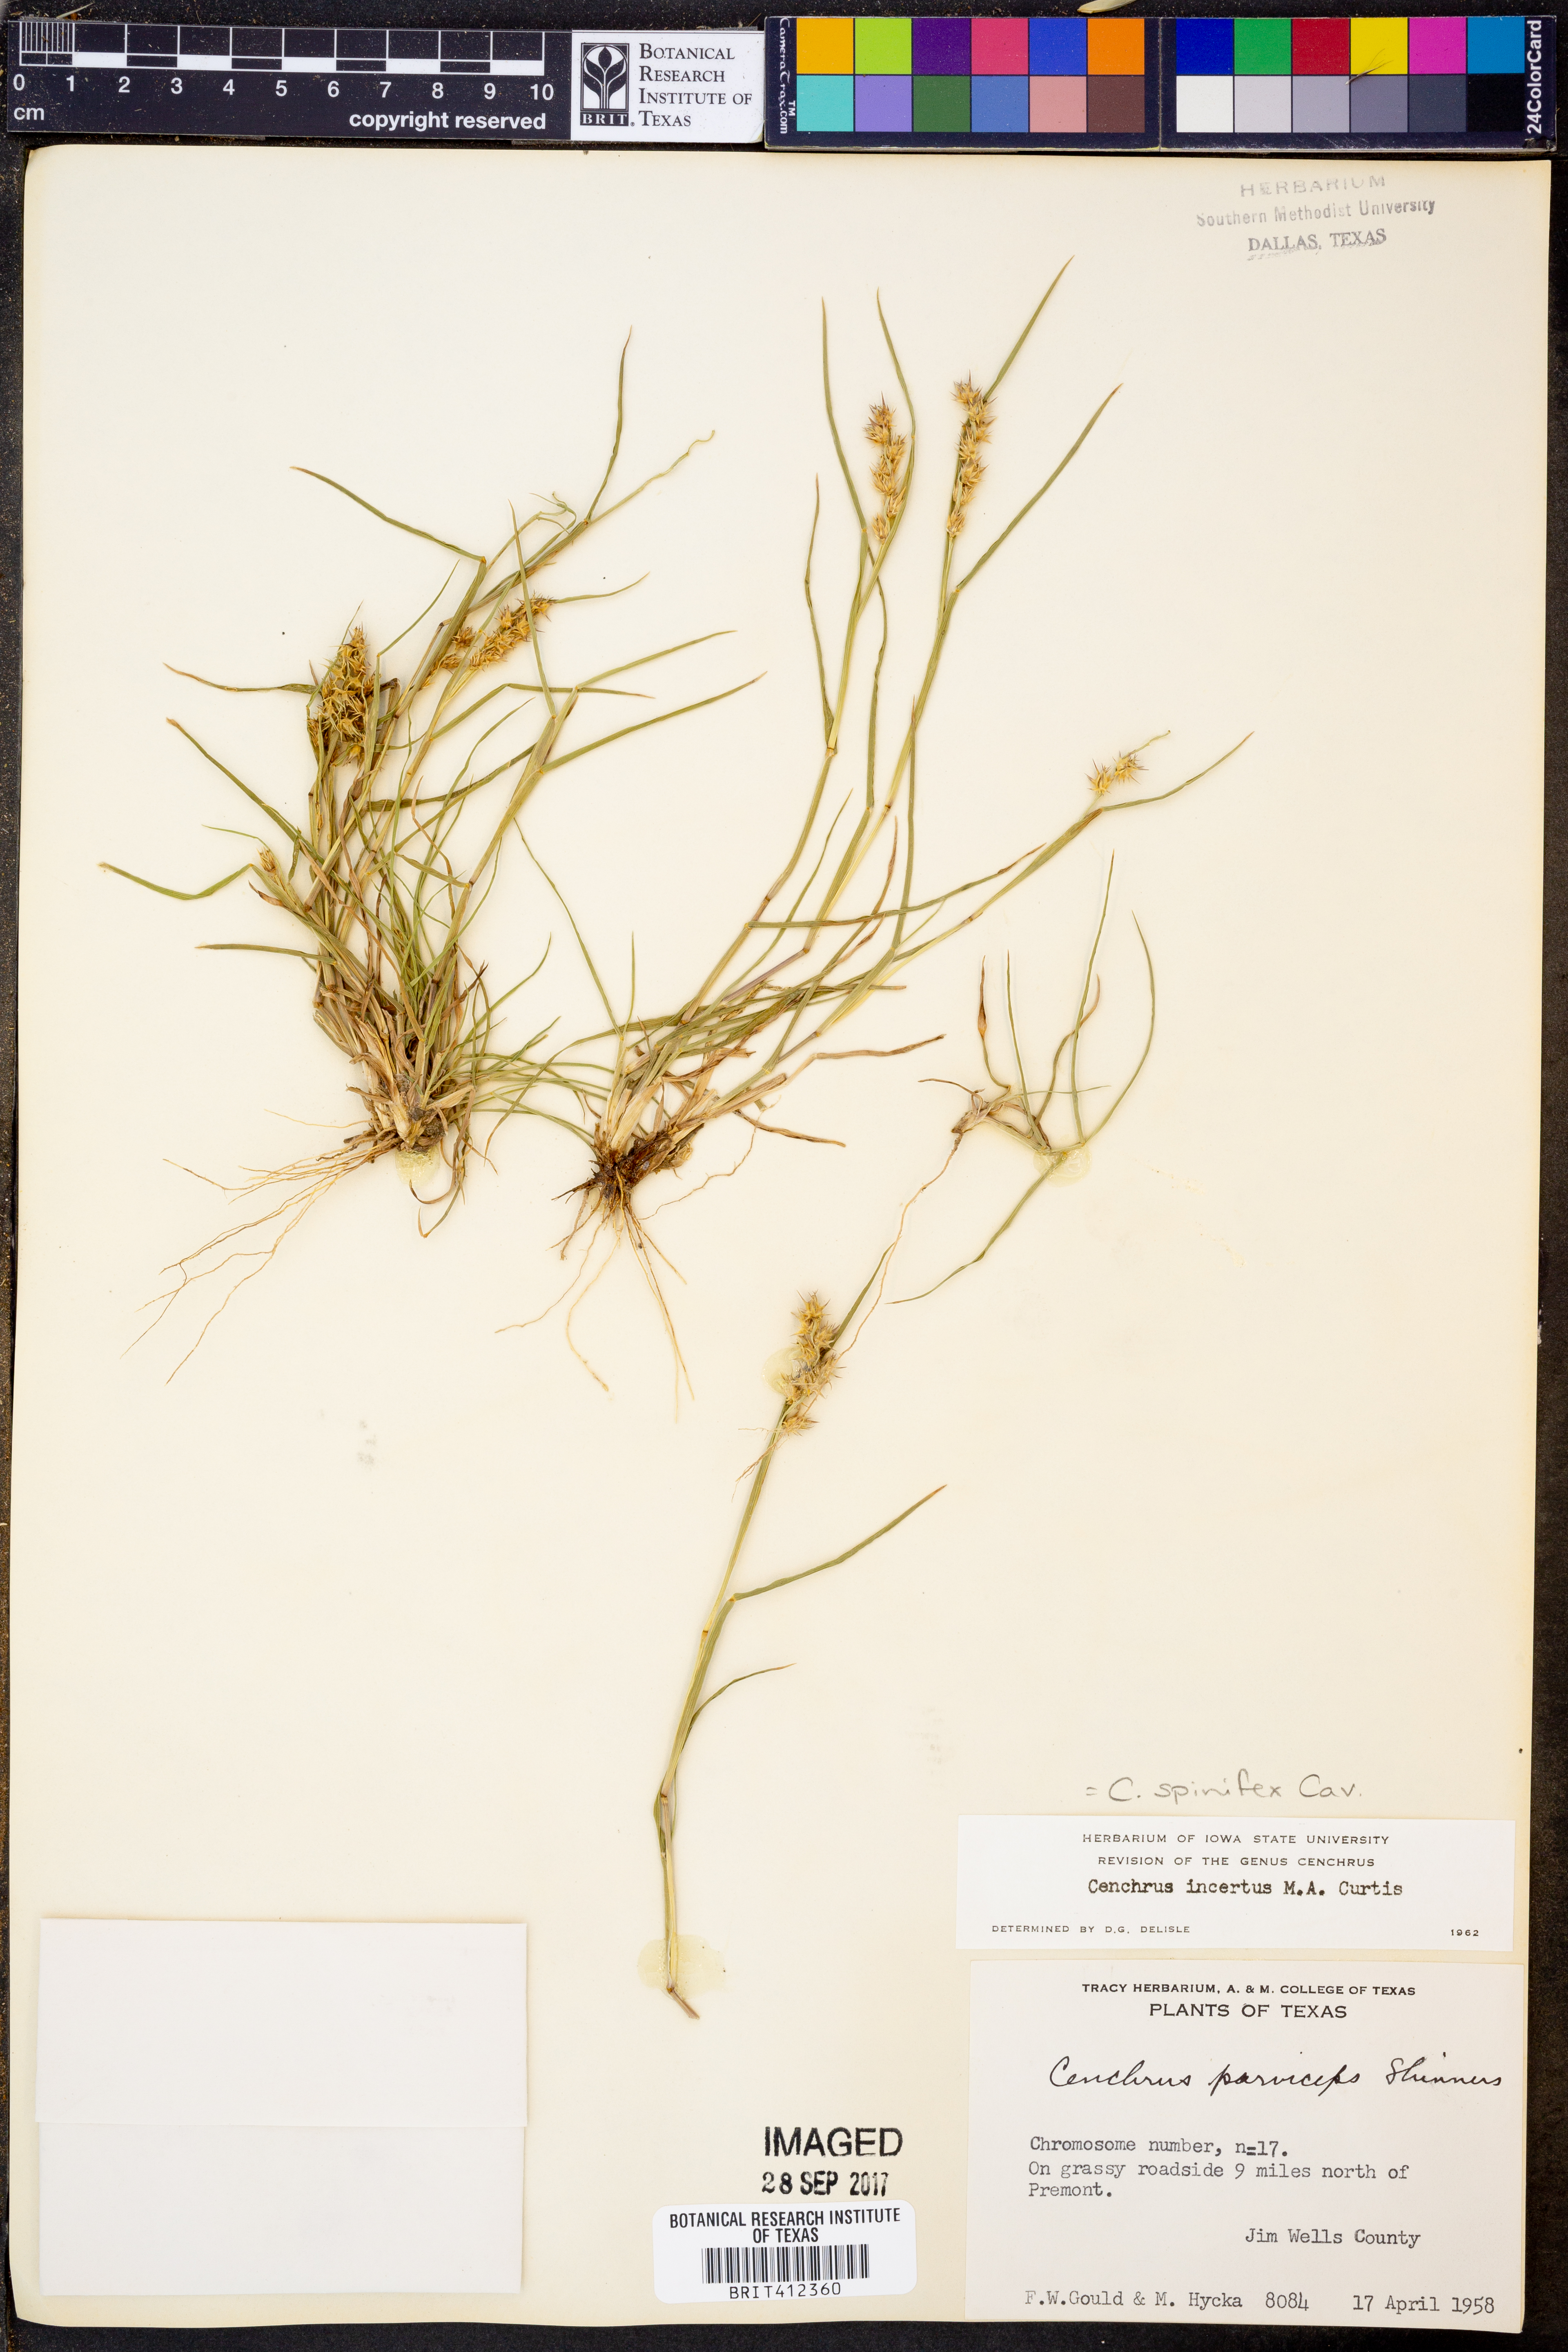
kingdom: Plantae
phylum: Tracheophyta
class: Liliopsida
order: Poales
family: Poaceae
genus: Cenchrus
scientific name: Cenchrus spinifex
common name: Coast sandbur
